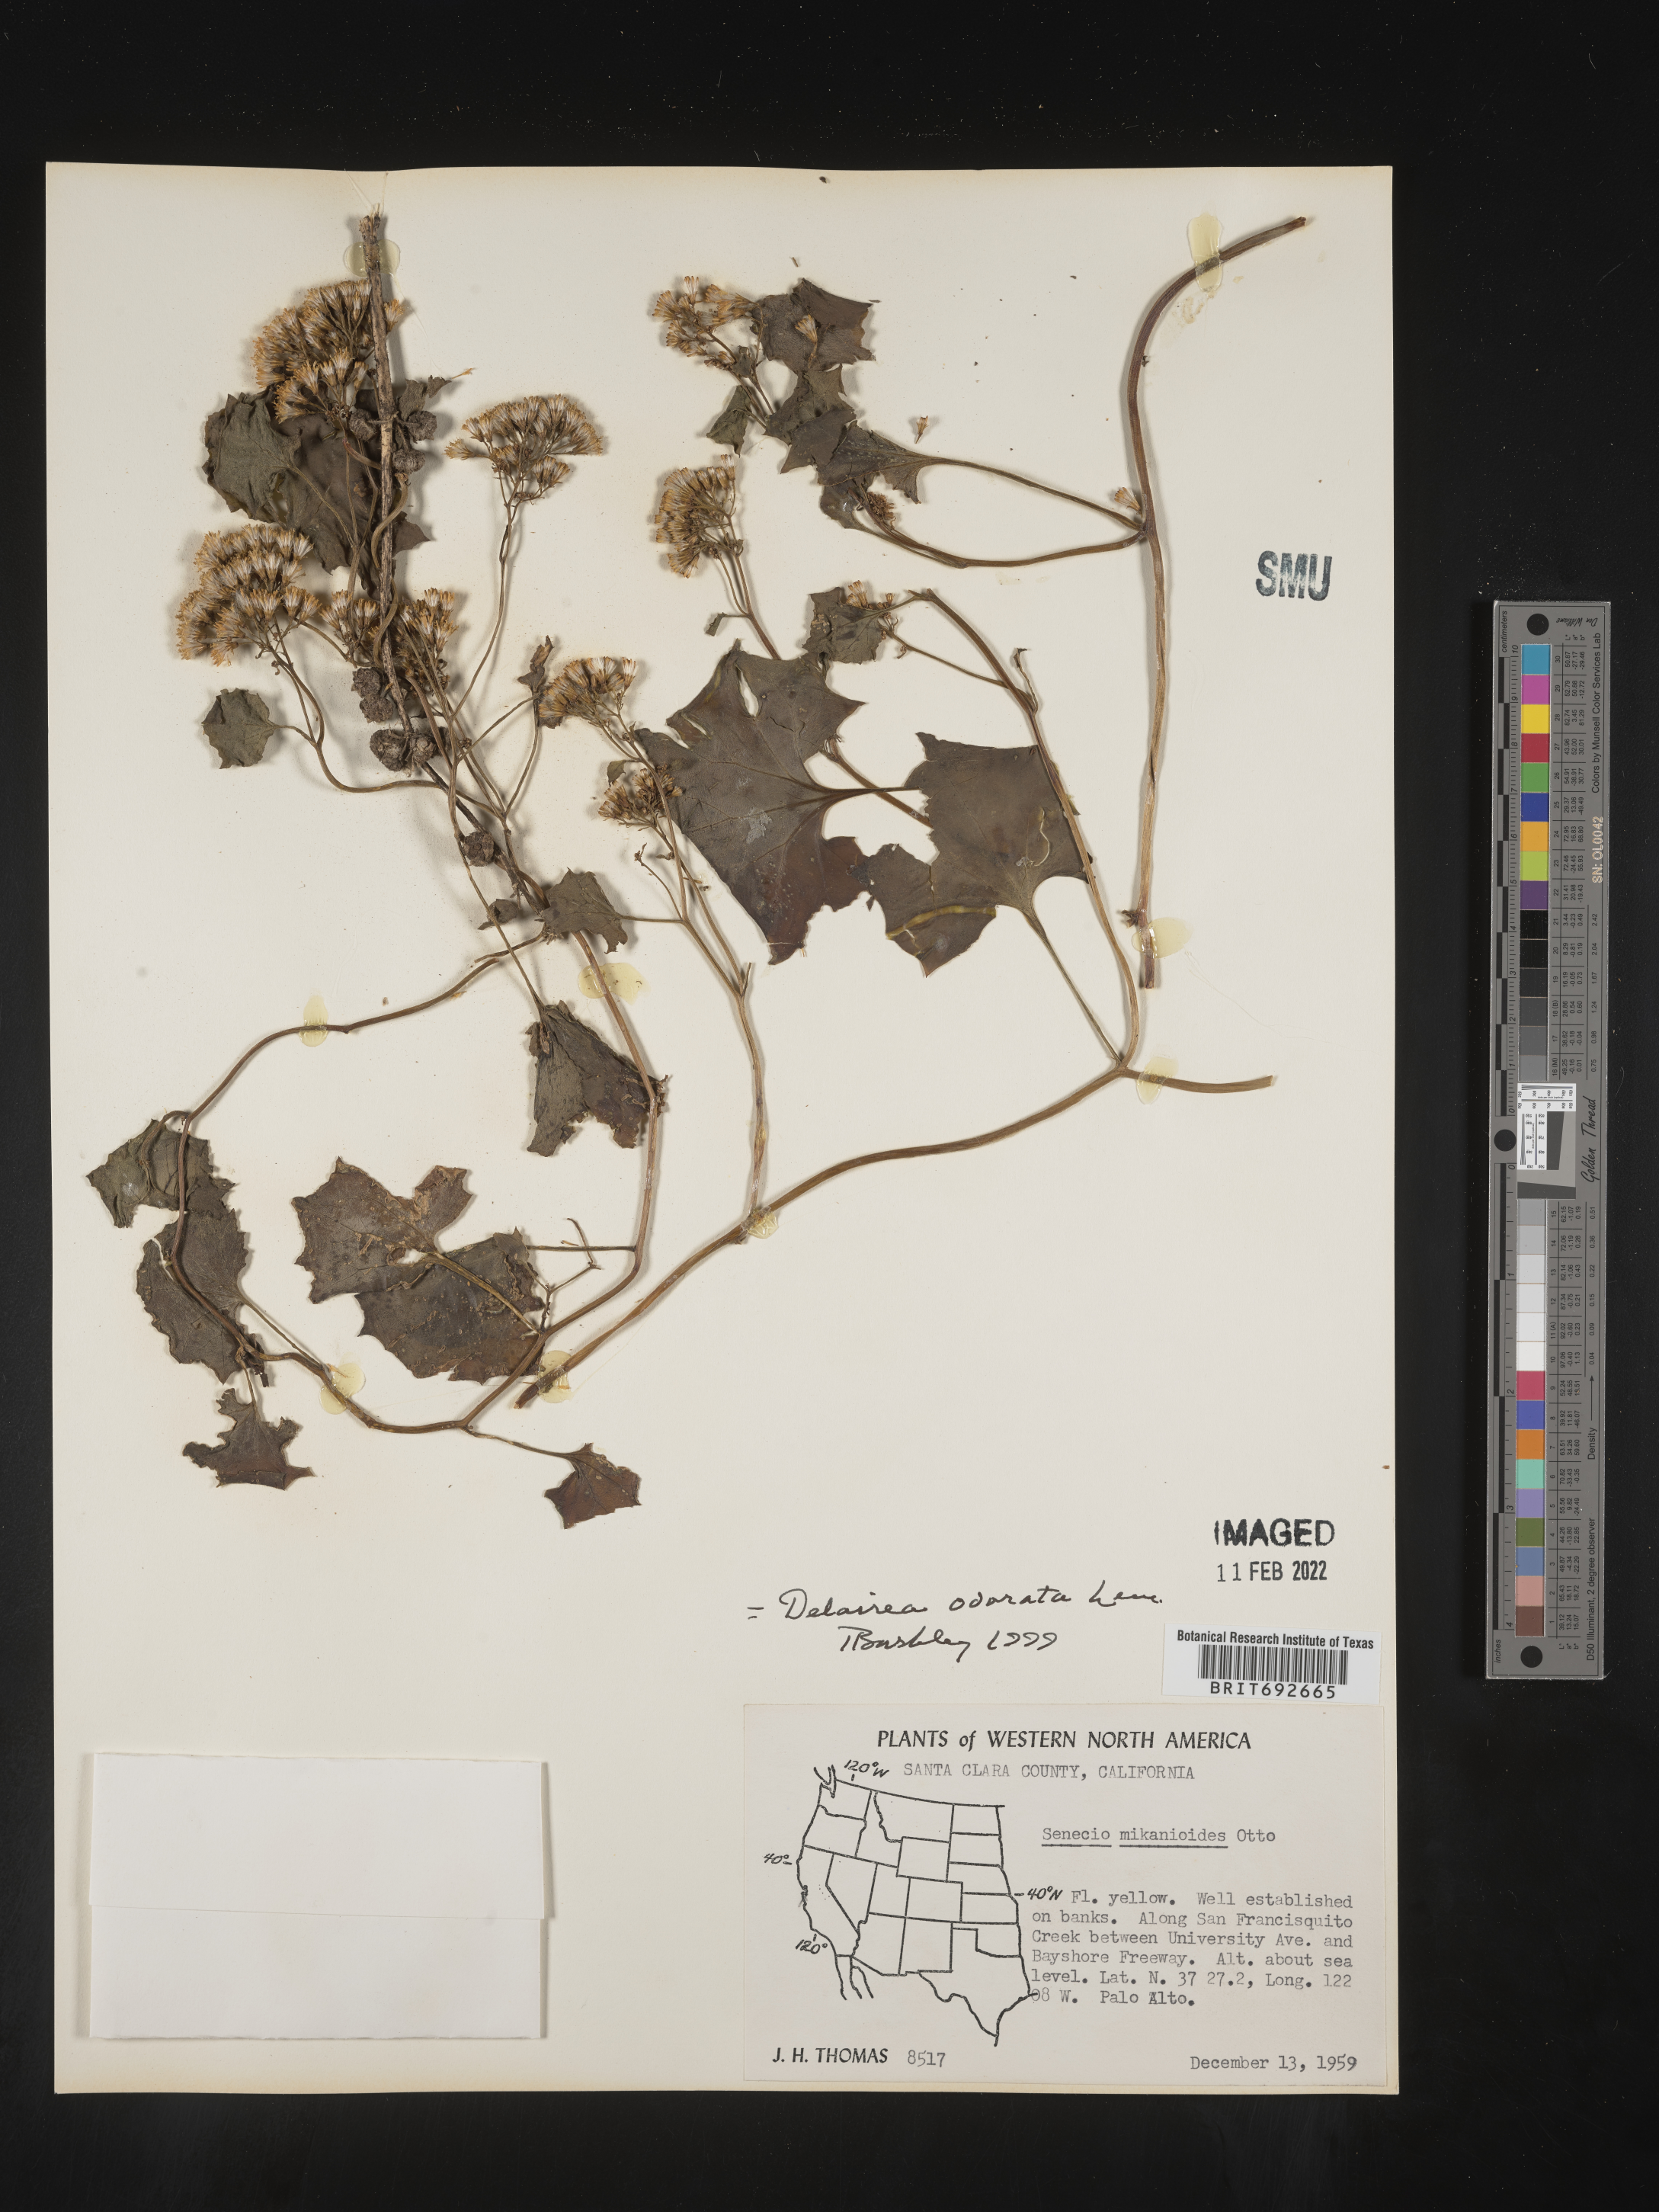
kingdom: Plantae
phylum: Tracheophyta
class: Magnoliopsida
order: Asterales
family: Asteraceae
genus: Delairea
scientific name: Delairea odorata
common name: Cape-ivy
